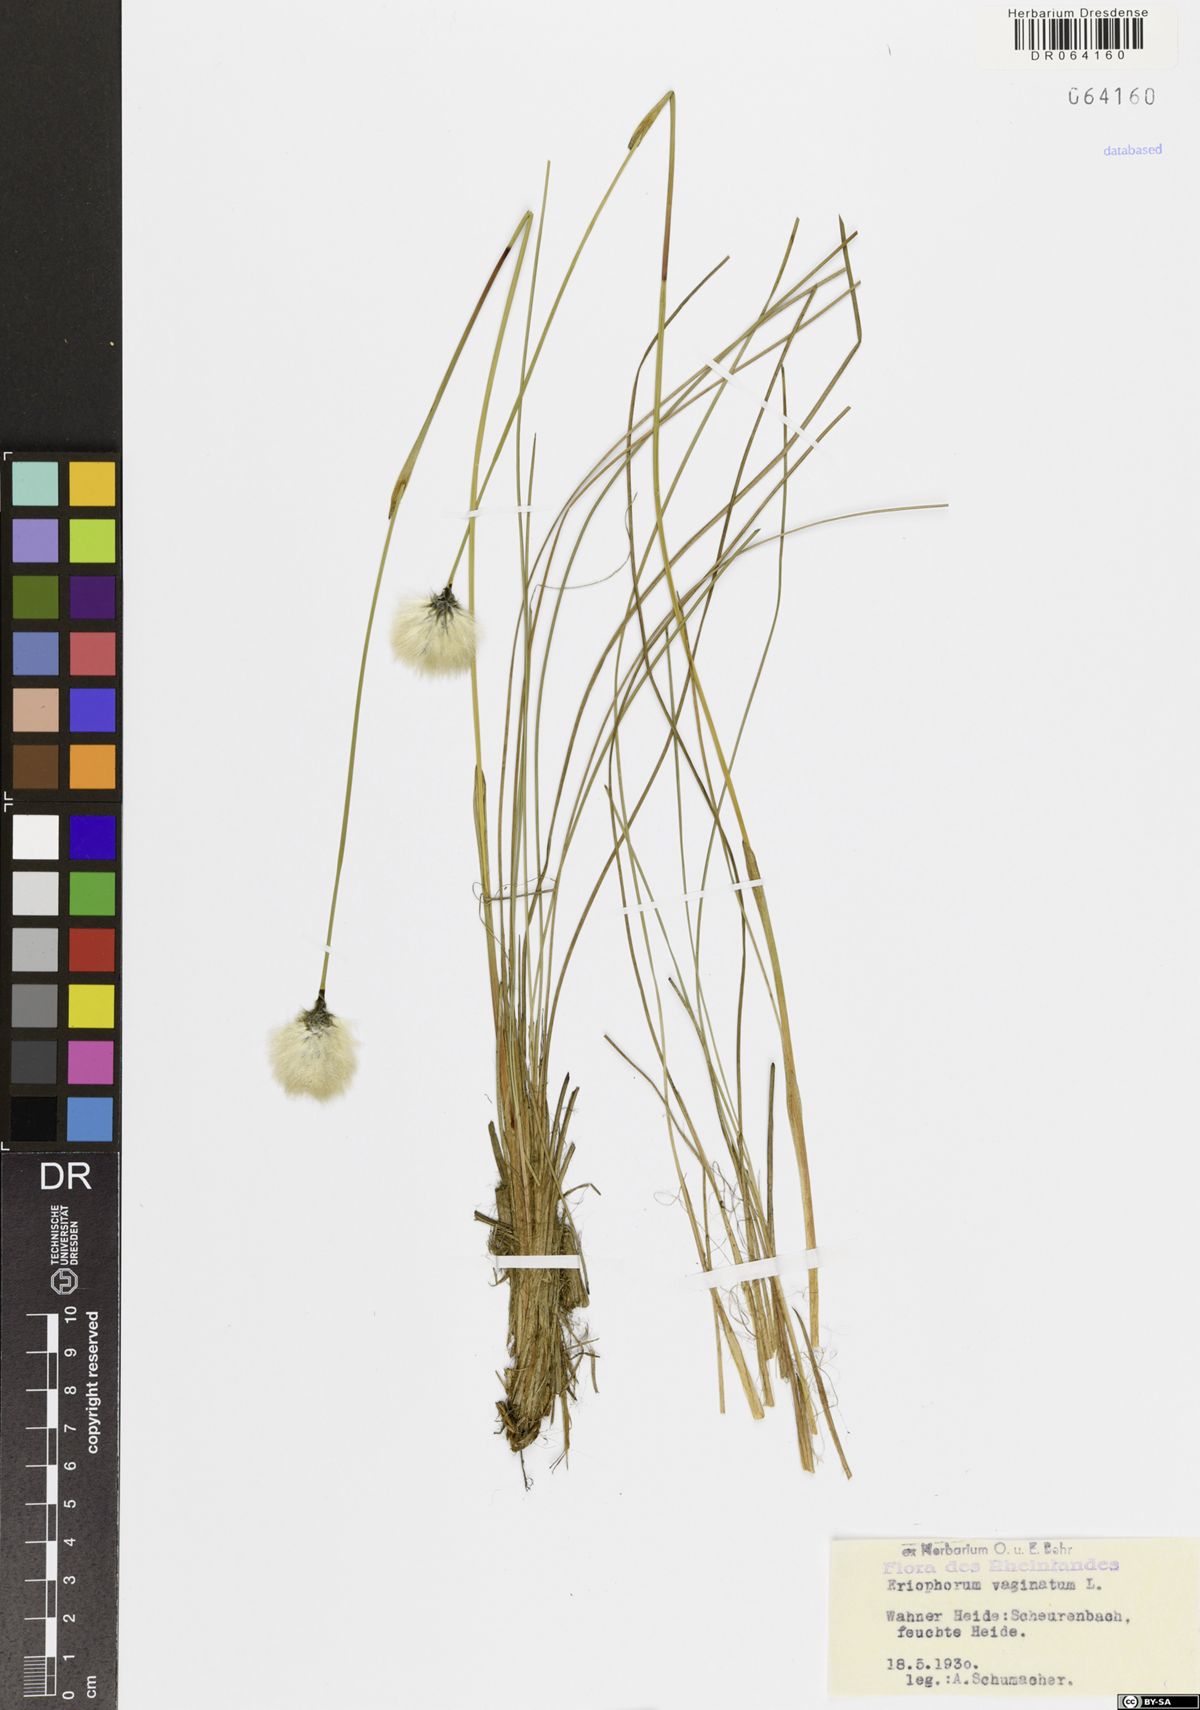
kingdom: Plantae
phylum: Tracheophyta
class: Liliopsida
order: Poales
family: Cyperaceae
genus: Eriophorum
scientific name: Eriophorum vaginatum
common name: Hare's-tail cottongrass
